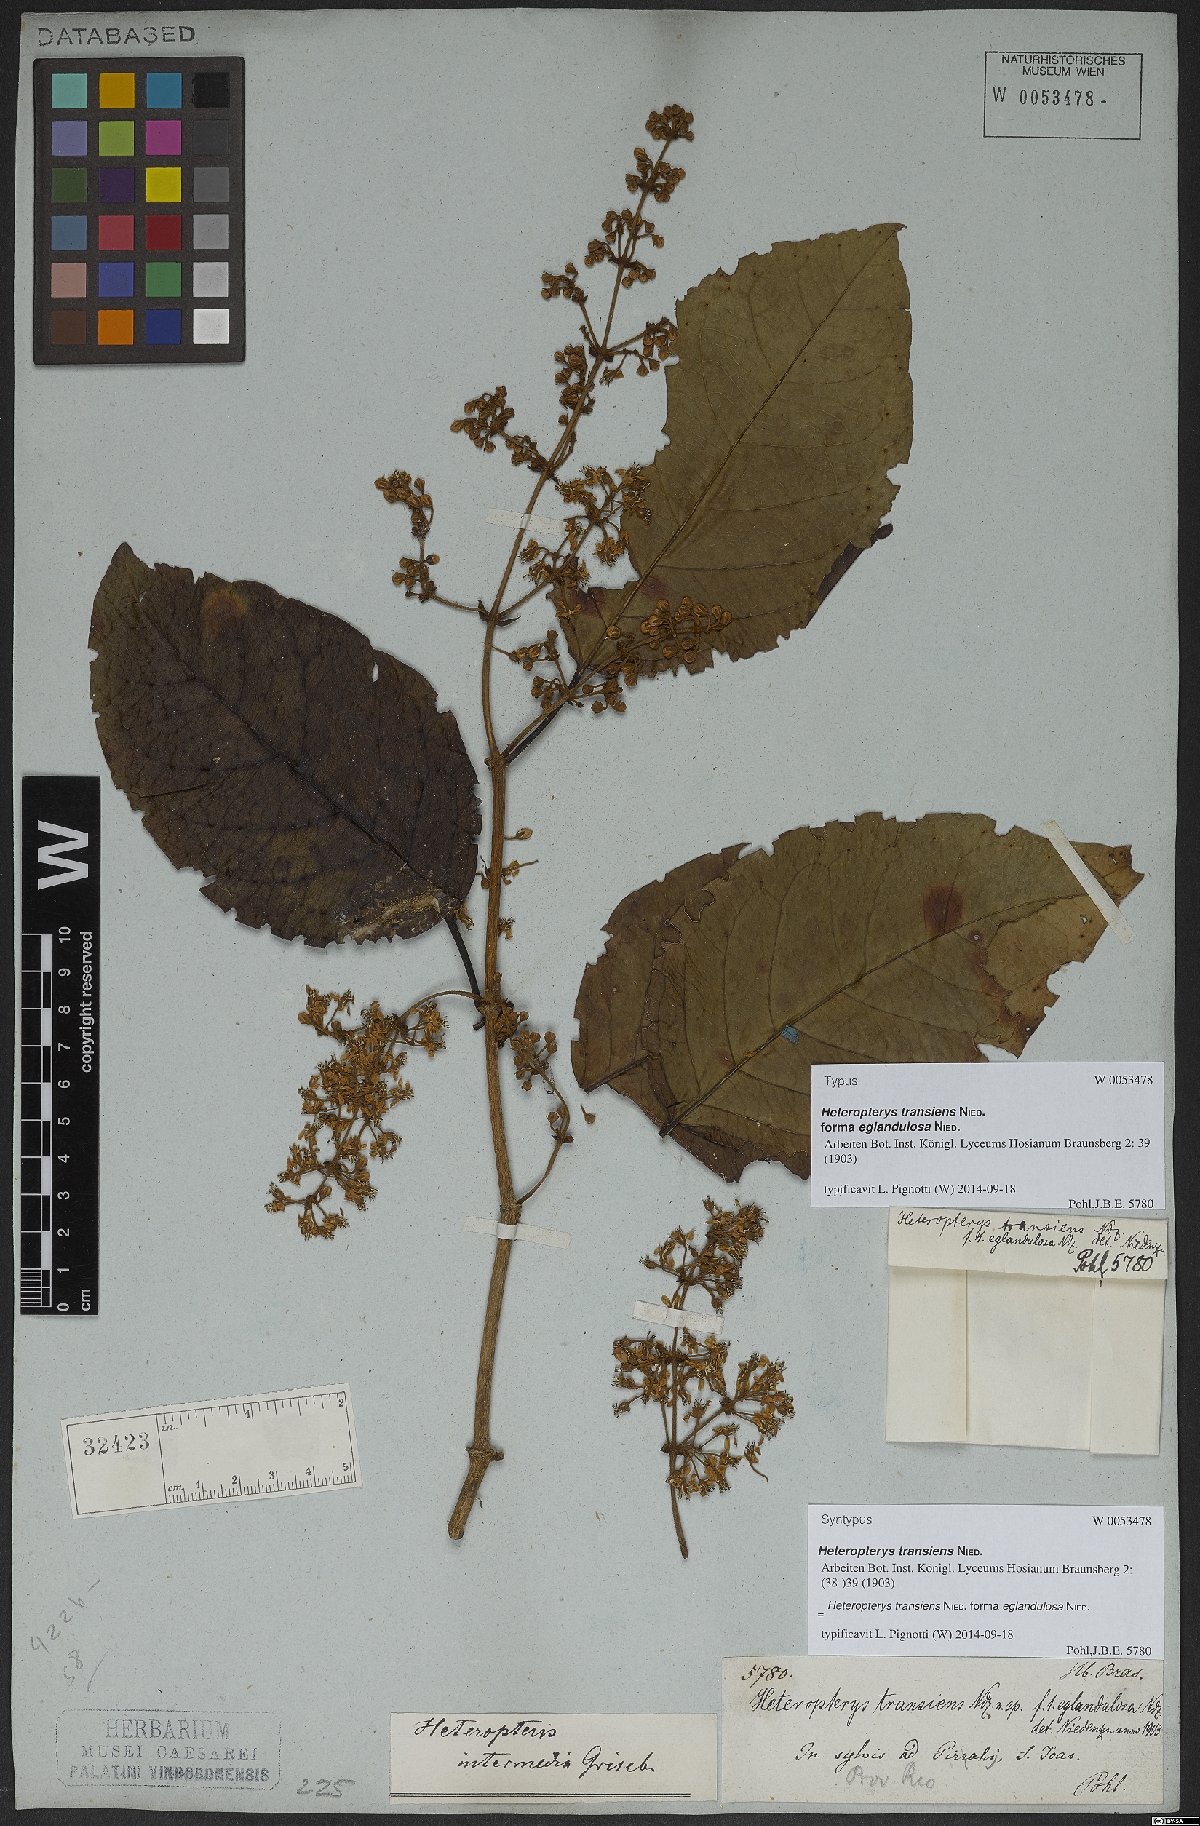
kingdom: Plantae
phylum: Tracheophyta
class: Magnoliopsida
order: Malpighiales
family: Malpighiaceae
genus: Heteropterys
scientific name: Heteropterys transiens
